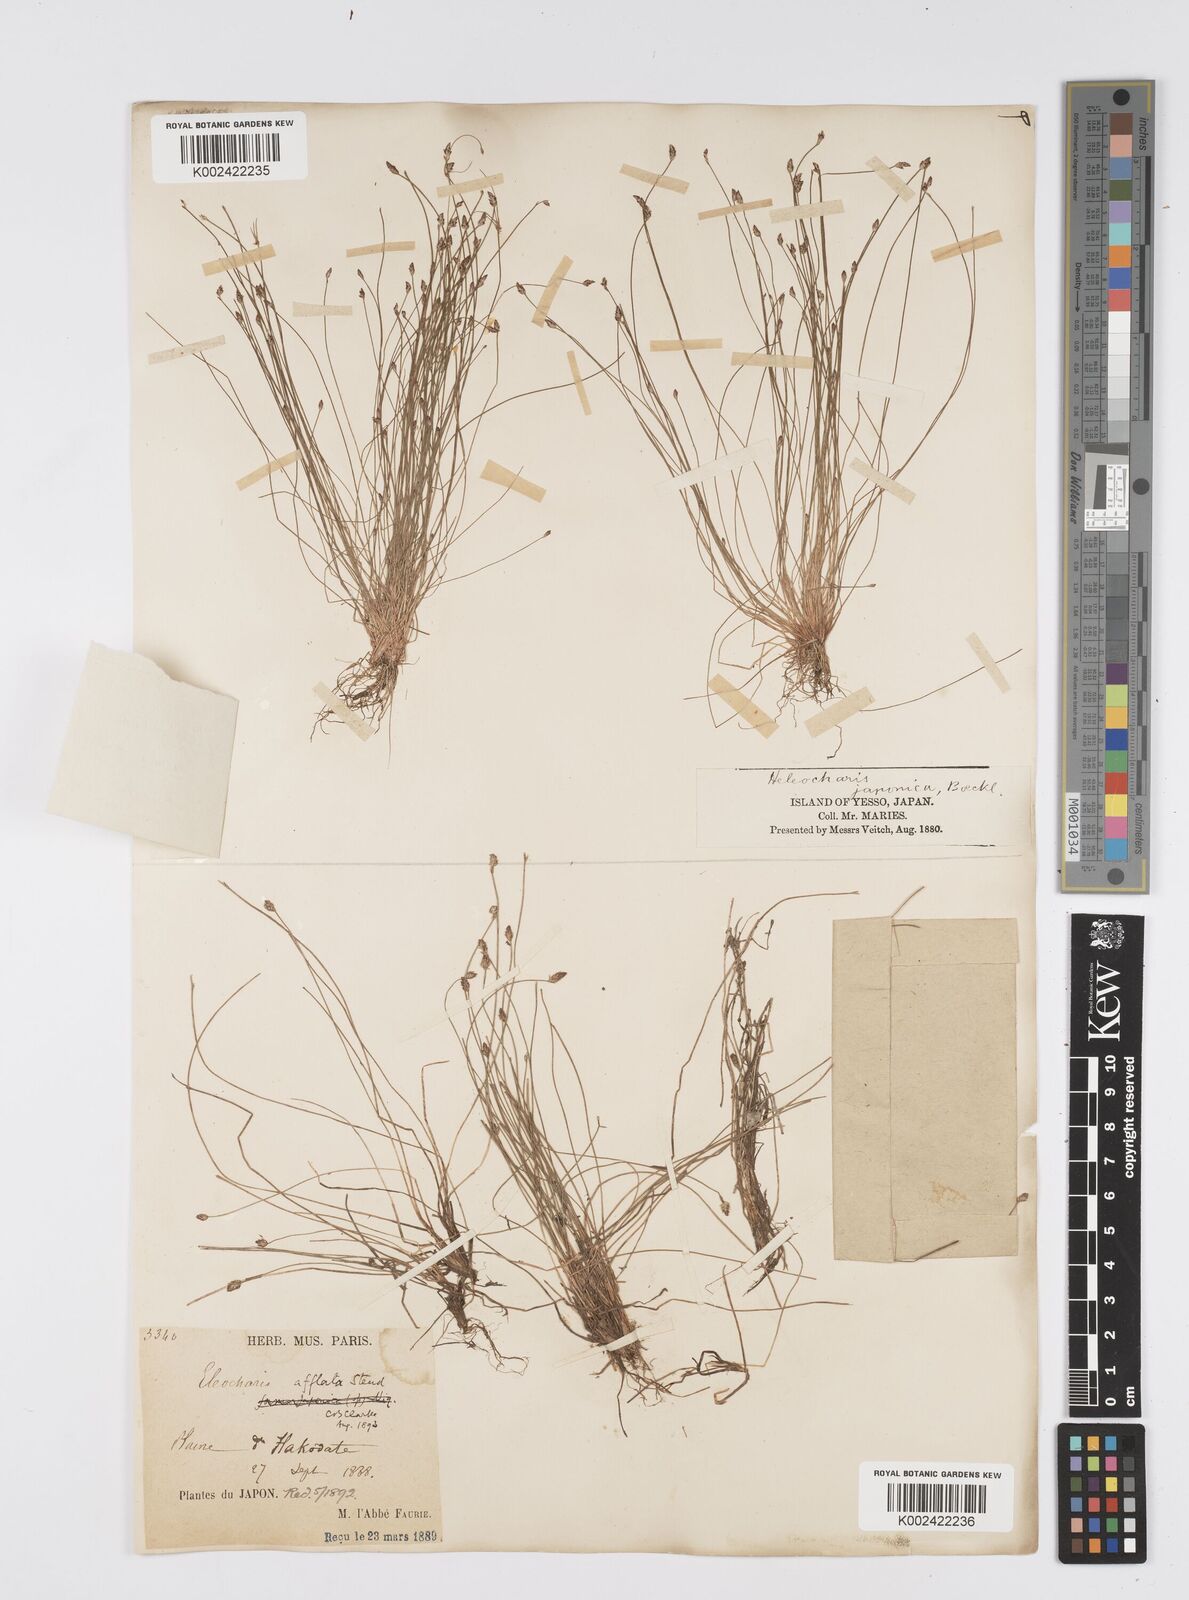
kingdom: Plantae
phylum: Tracheophyta
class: Liliopsida
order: Poales
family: Cyperaceae
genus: Eleocharis
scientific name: Eleocharis pellucida
